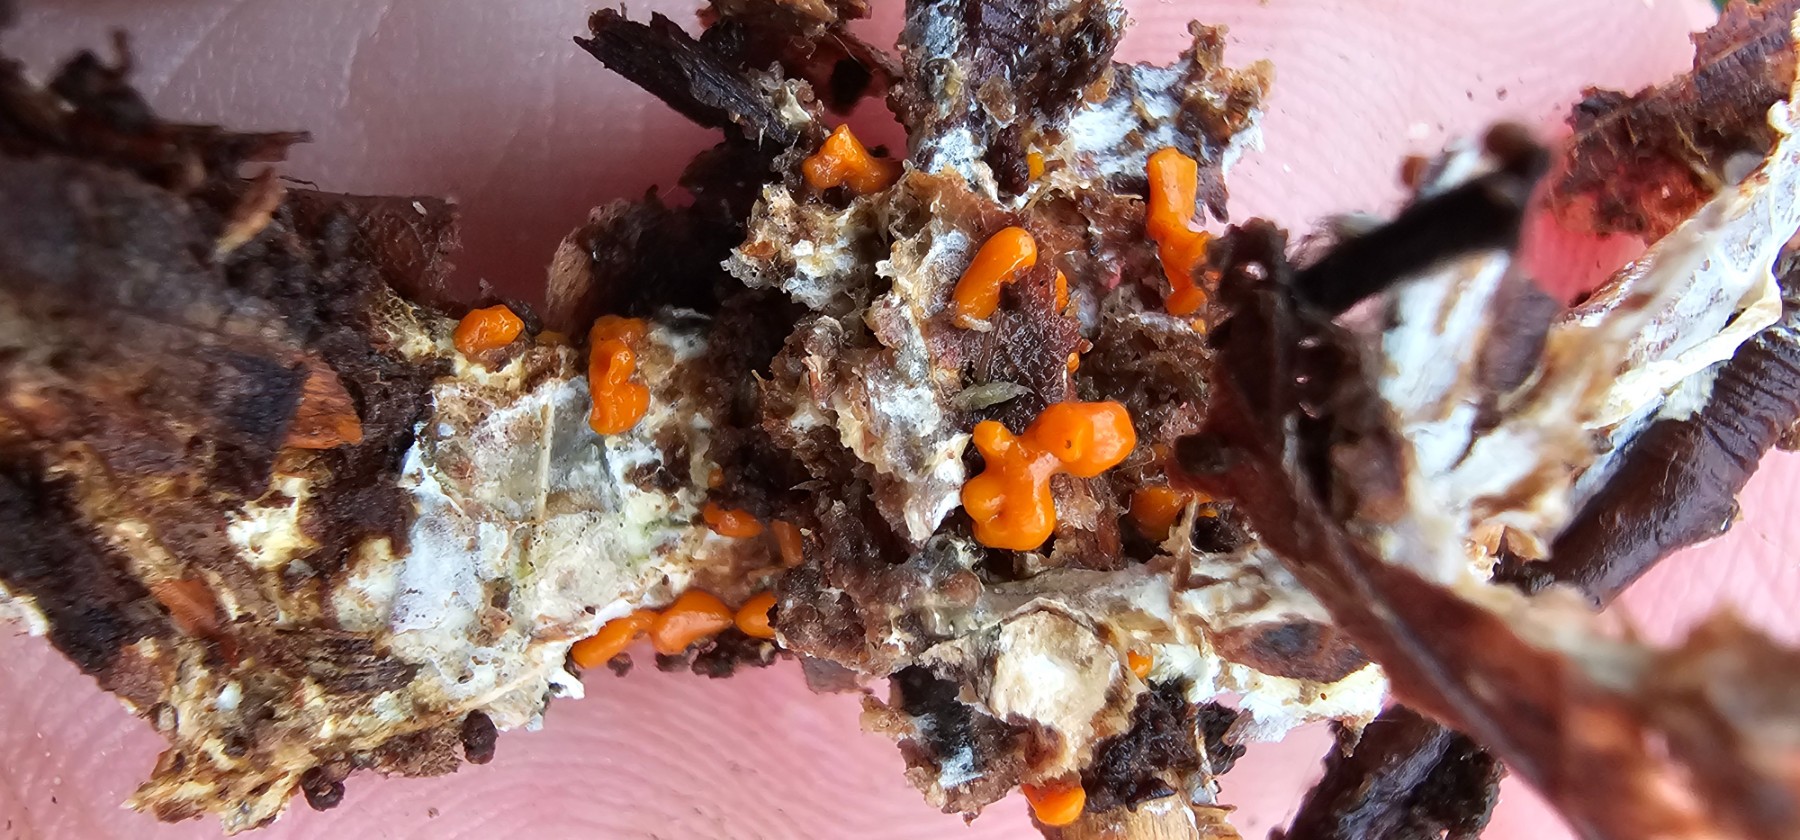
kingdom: Fungi
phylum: Basidiomycota
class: Dacrymycetes
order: Dacrymycetales
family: Dacrymycetaceae
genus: Dacrymyces
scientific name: Dacrymyces stillatus
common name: almindelig tåresvamp
